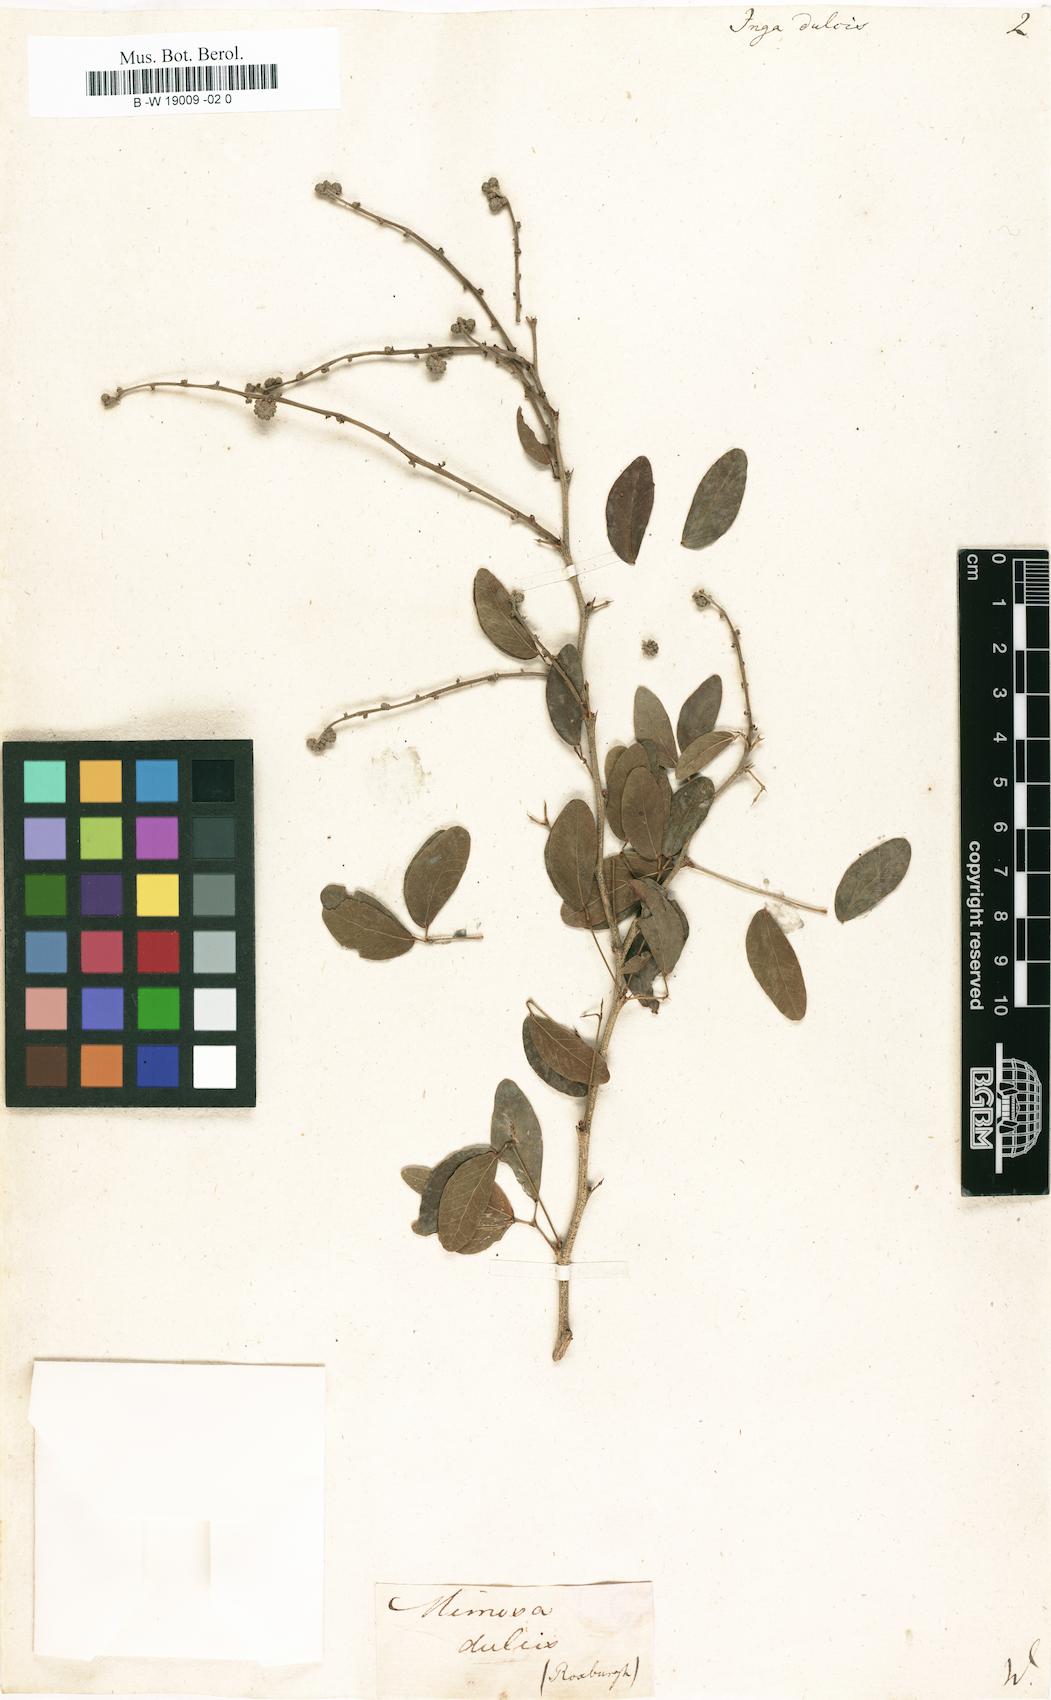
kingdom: Plantae
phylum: Tracheophyta
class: Magnoliopsida
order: Fabales
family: Fabaceae
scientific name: Fabaceae
